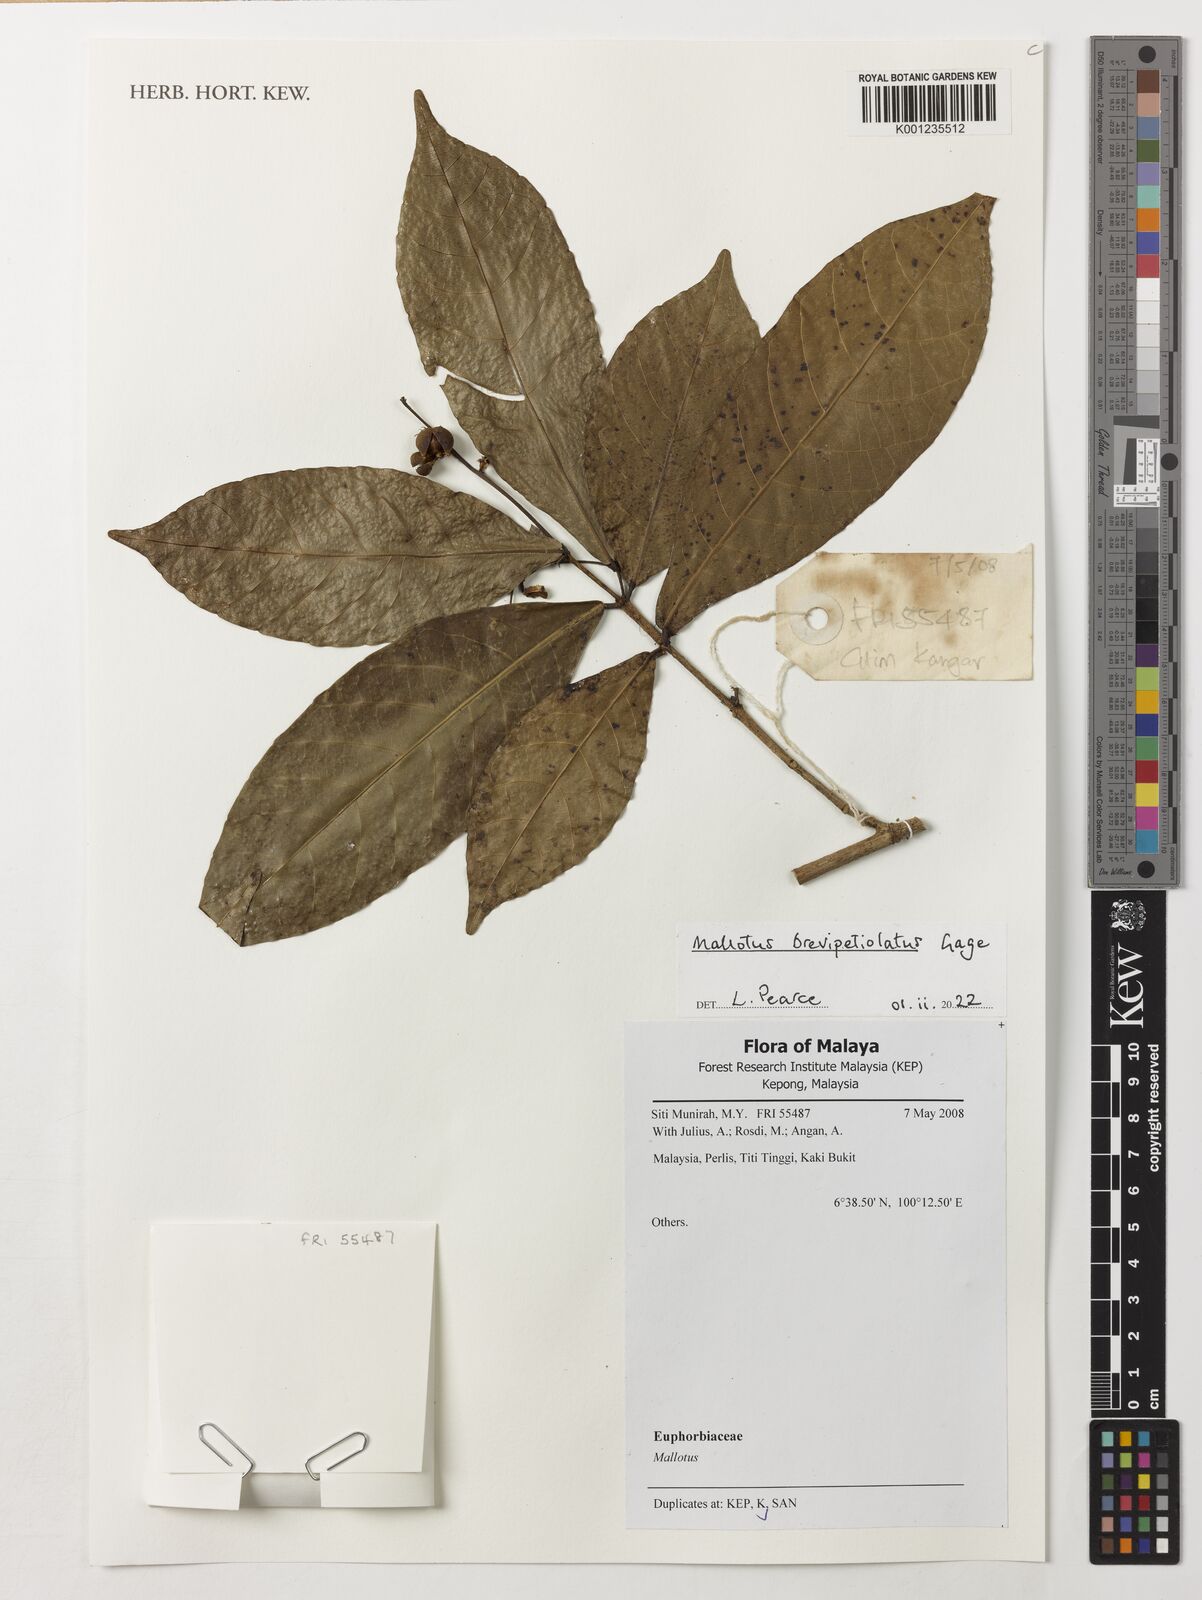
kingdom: Plantae
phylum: Tracheophyta
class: Magnoliopsida
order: Malpighiales
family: Euphorbiaceae
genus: Mallotus
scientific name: Mallotus brevipetiolatus
